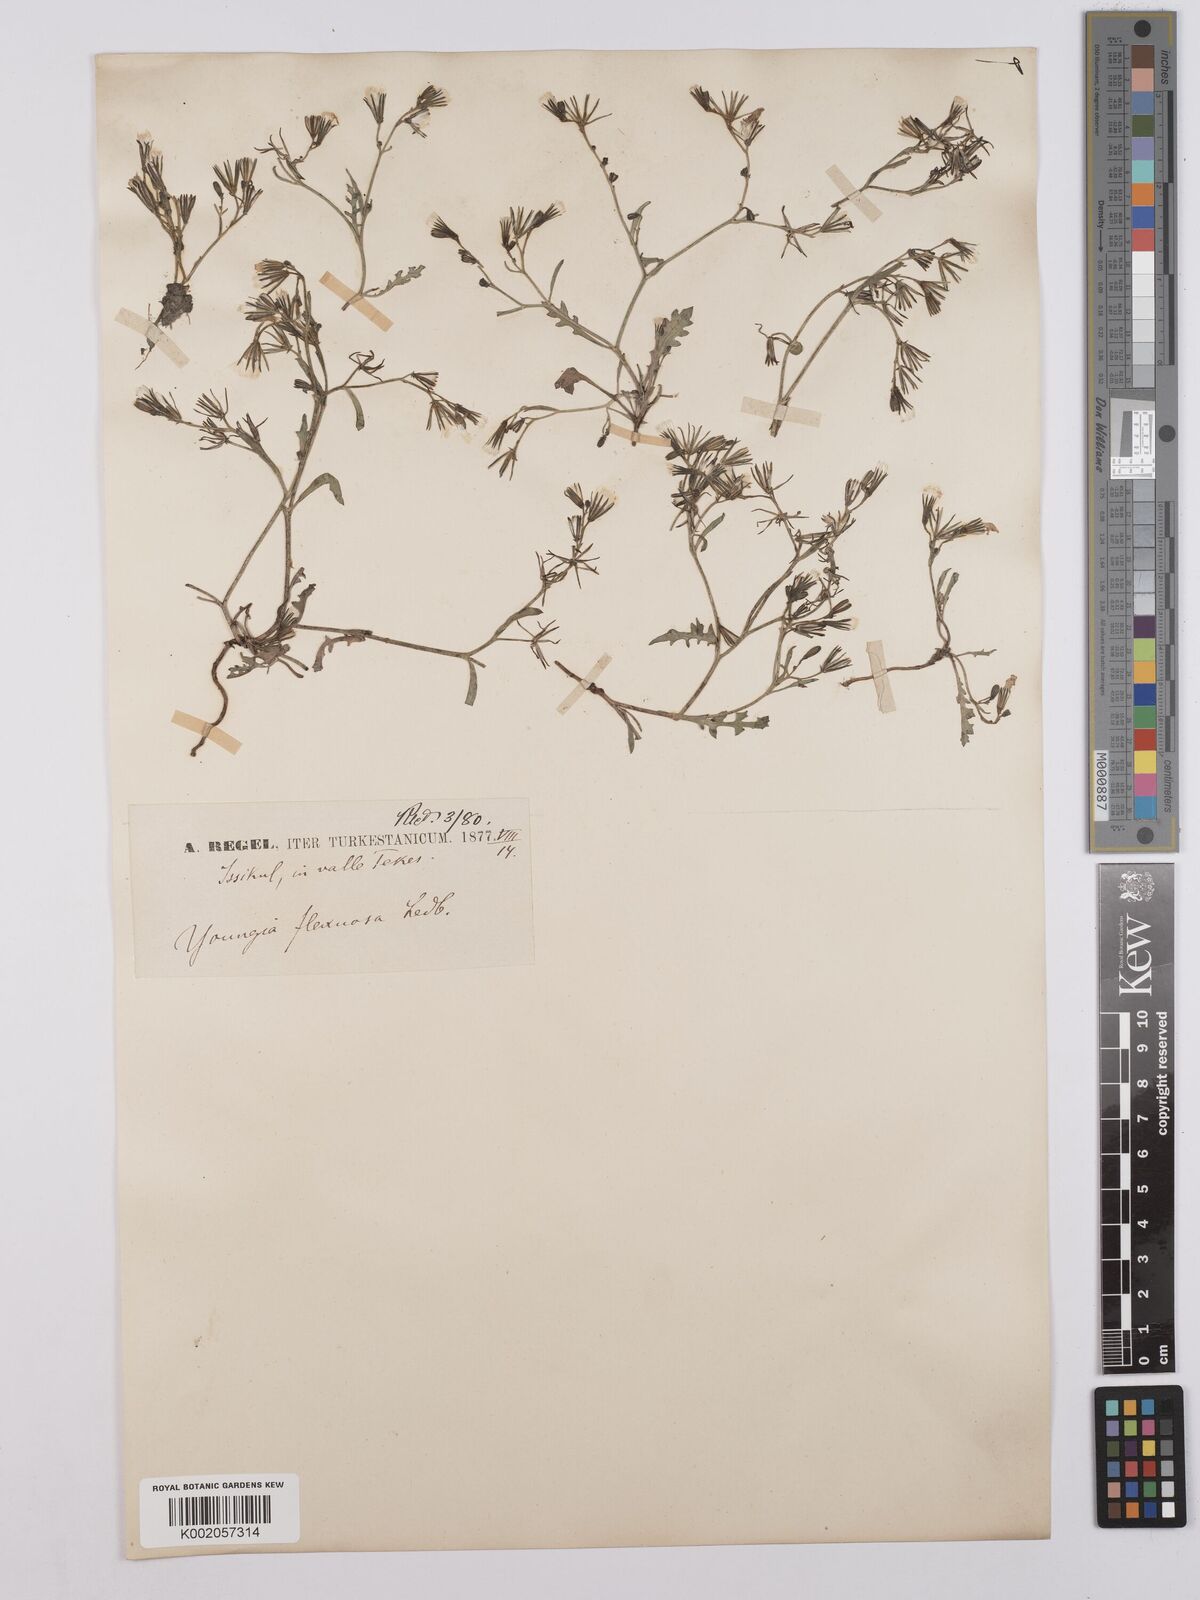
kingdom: Plantae
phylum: Tracheophyta
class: Magnoliopsida
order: Asterales
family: Asteraceae
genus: Askellia
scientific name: Askellia flexuosa
